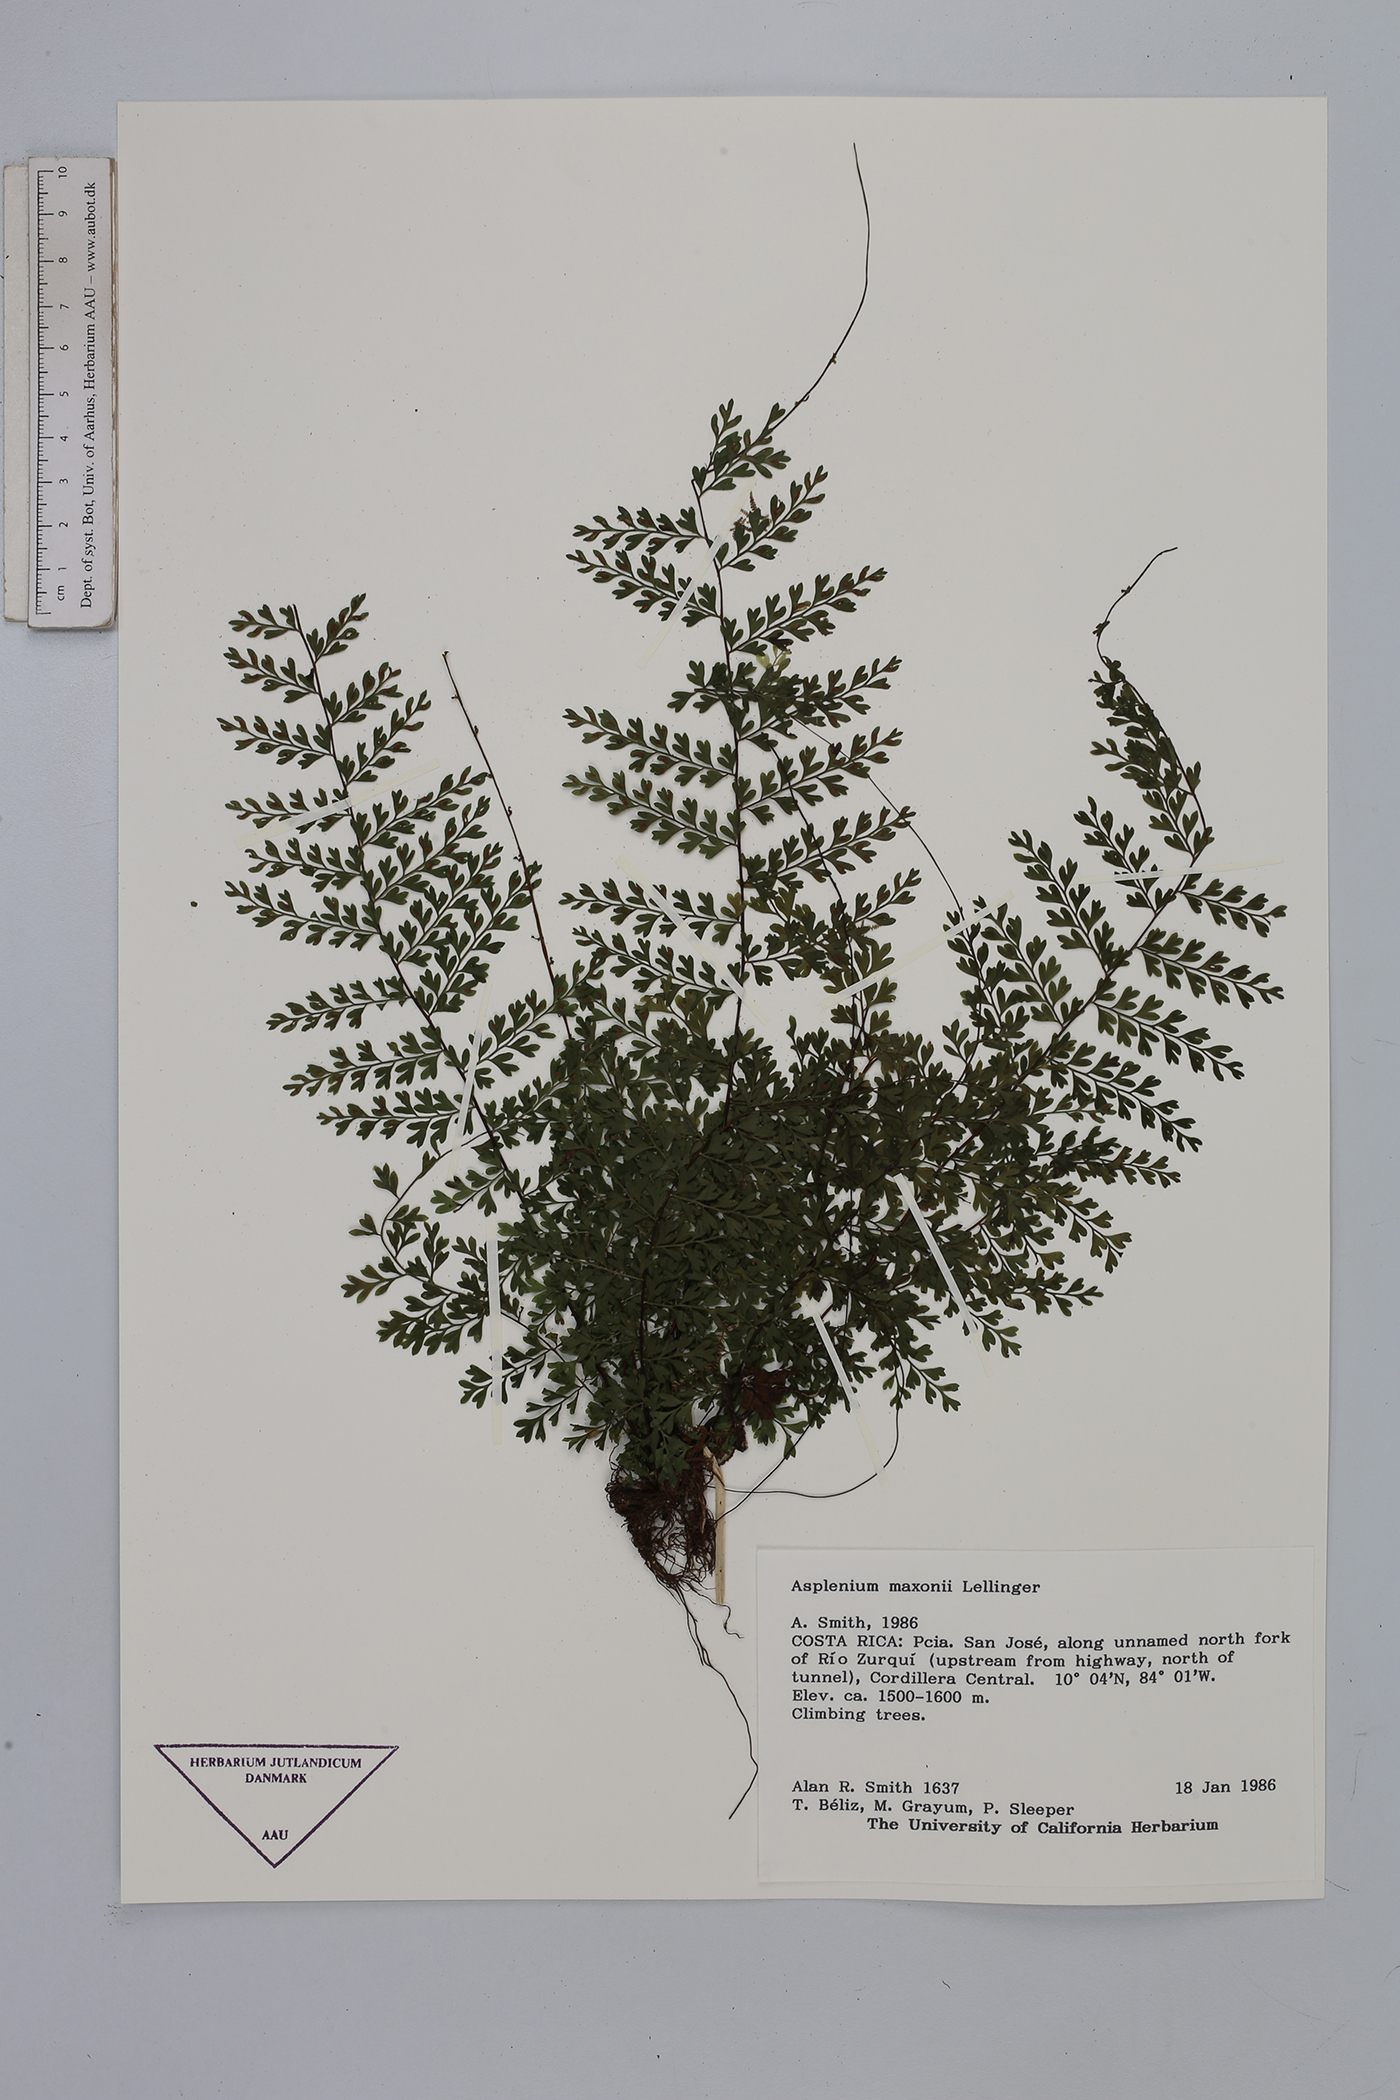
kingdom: Plantae
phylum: Tracheophyta
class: Polypodiopsida
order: Polypodiales
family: Aspleniaceae
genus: Asplenium
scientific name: Asplenium maxonii
